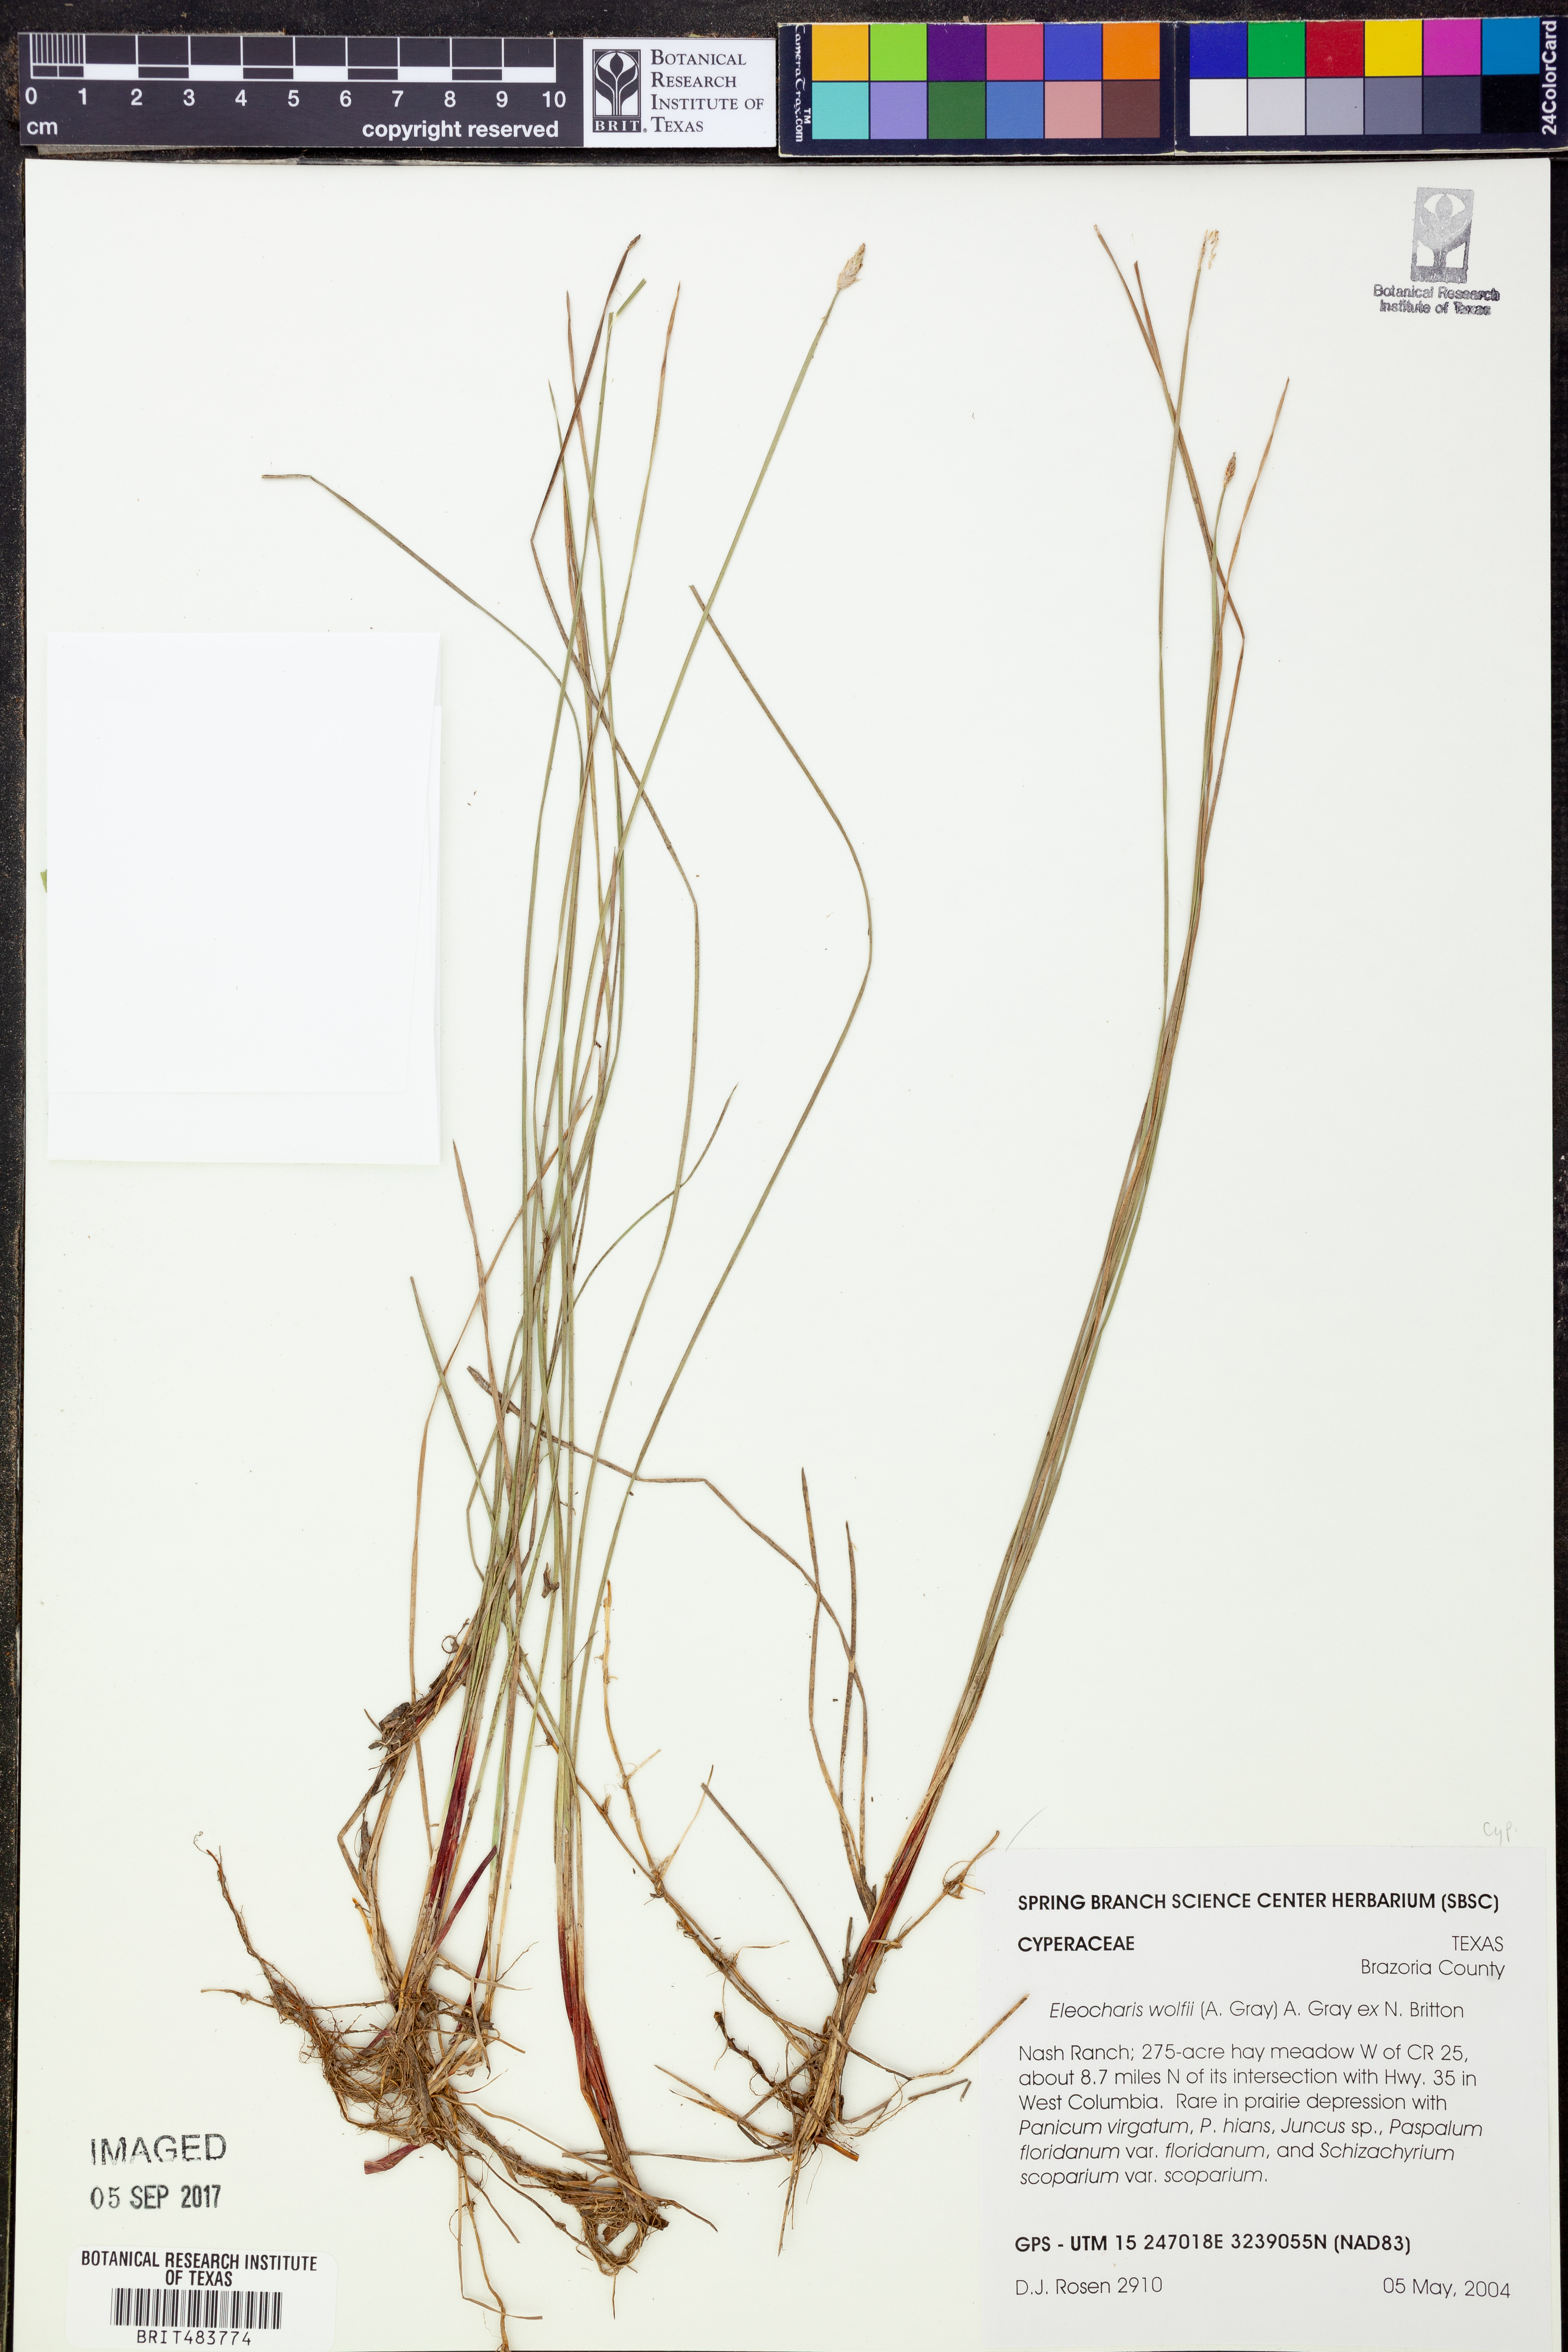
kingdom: Plantae
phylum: Tracheophyta
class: Liliopsida
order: Poales
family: Cyperaceae
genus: Eleocharis
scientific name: Eleocharis wolfii
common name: Wolf's spikerush
